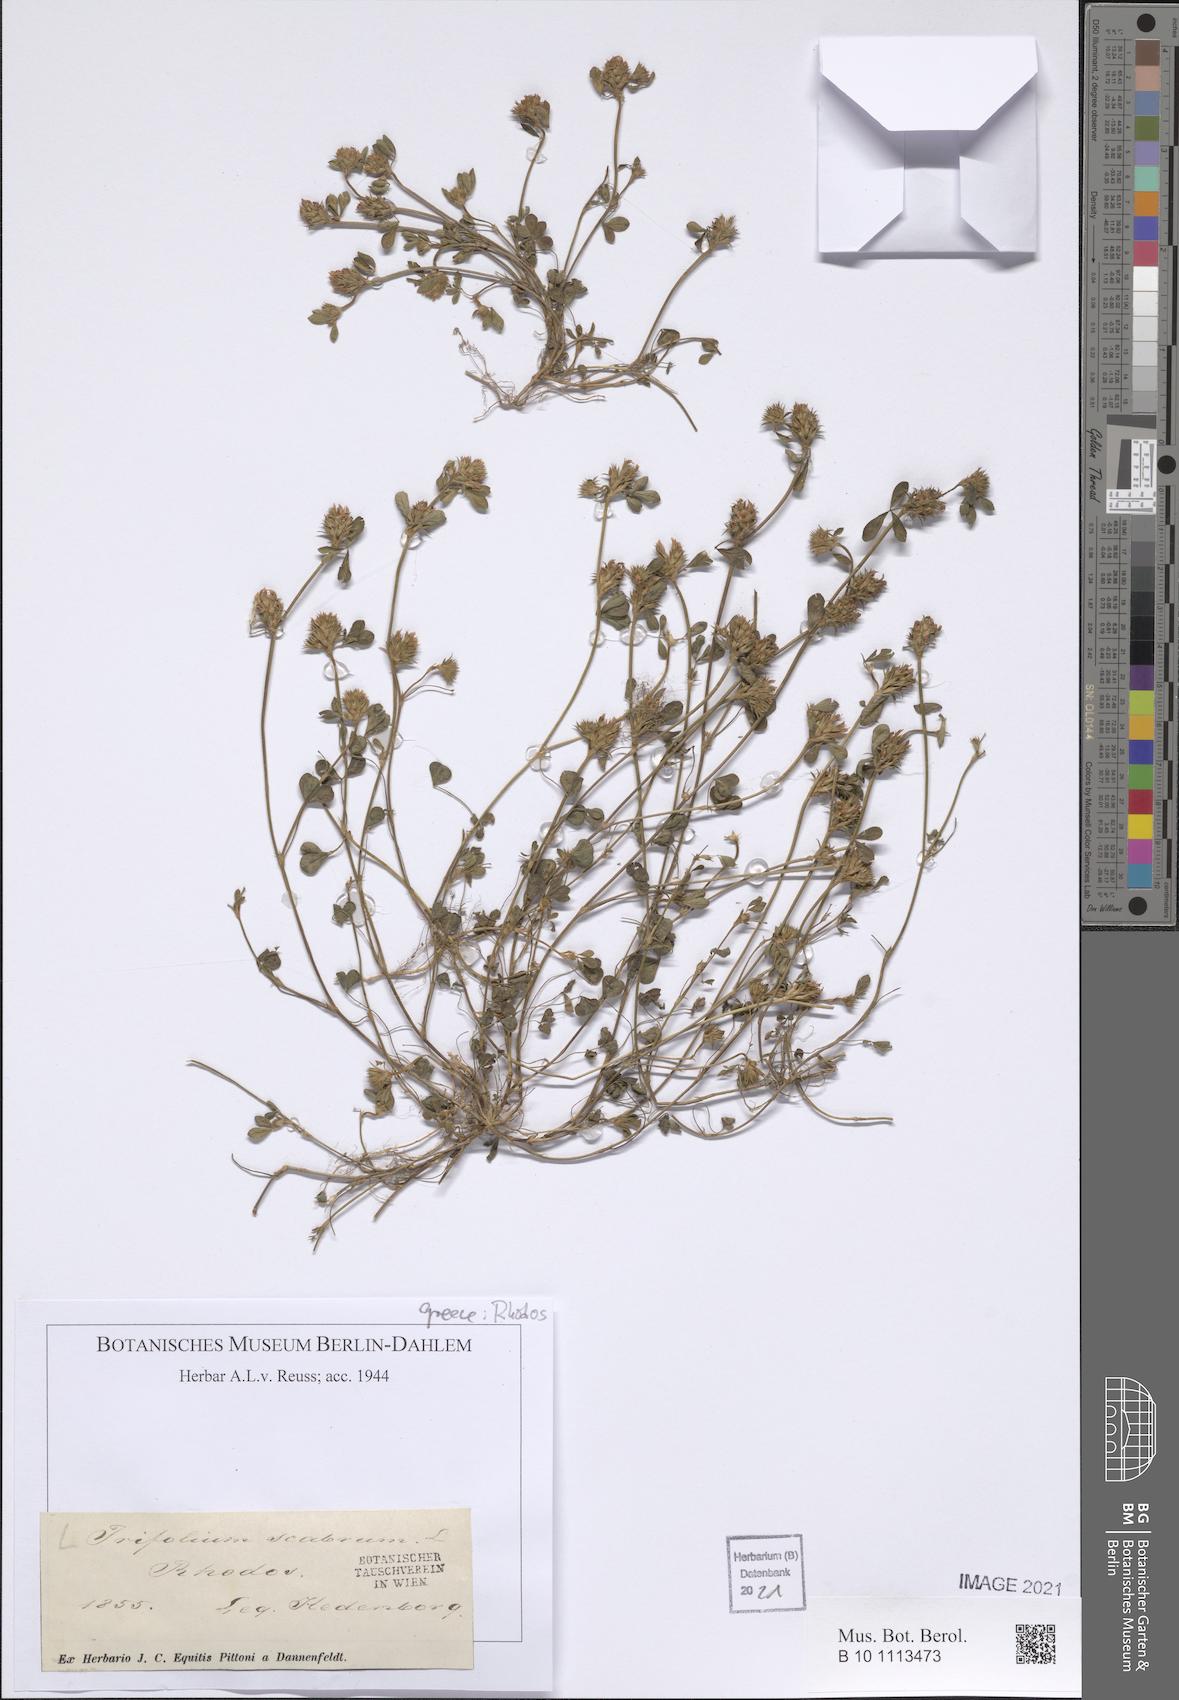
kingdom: Plantae
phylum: Tracheophyta
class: Magnoliopsida
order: Fabales
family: Fabaceae
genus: Trifolium
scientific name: Trifolium scabrum
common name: Rough clover
